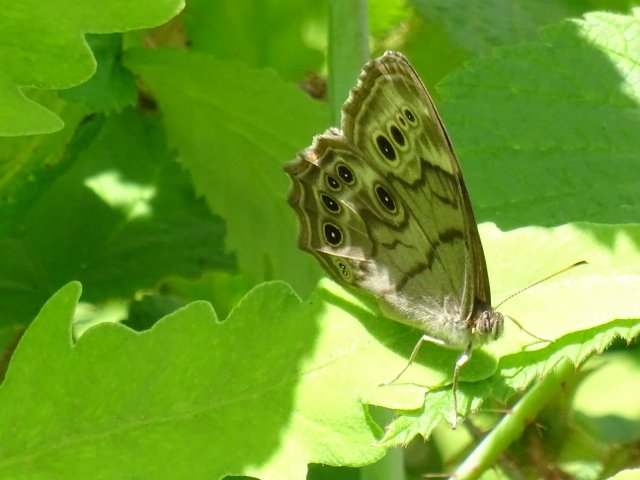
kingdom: Animalia
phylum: Arthropoda
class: Insecta
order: Lepidoptera
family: Nymphalidae
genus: Lethe
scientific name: Lethe anthedon
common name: Northern Pearly-Eye
